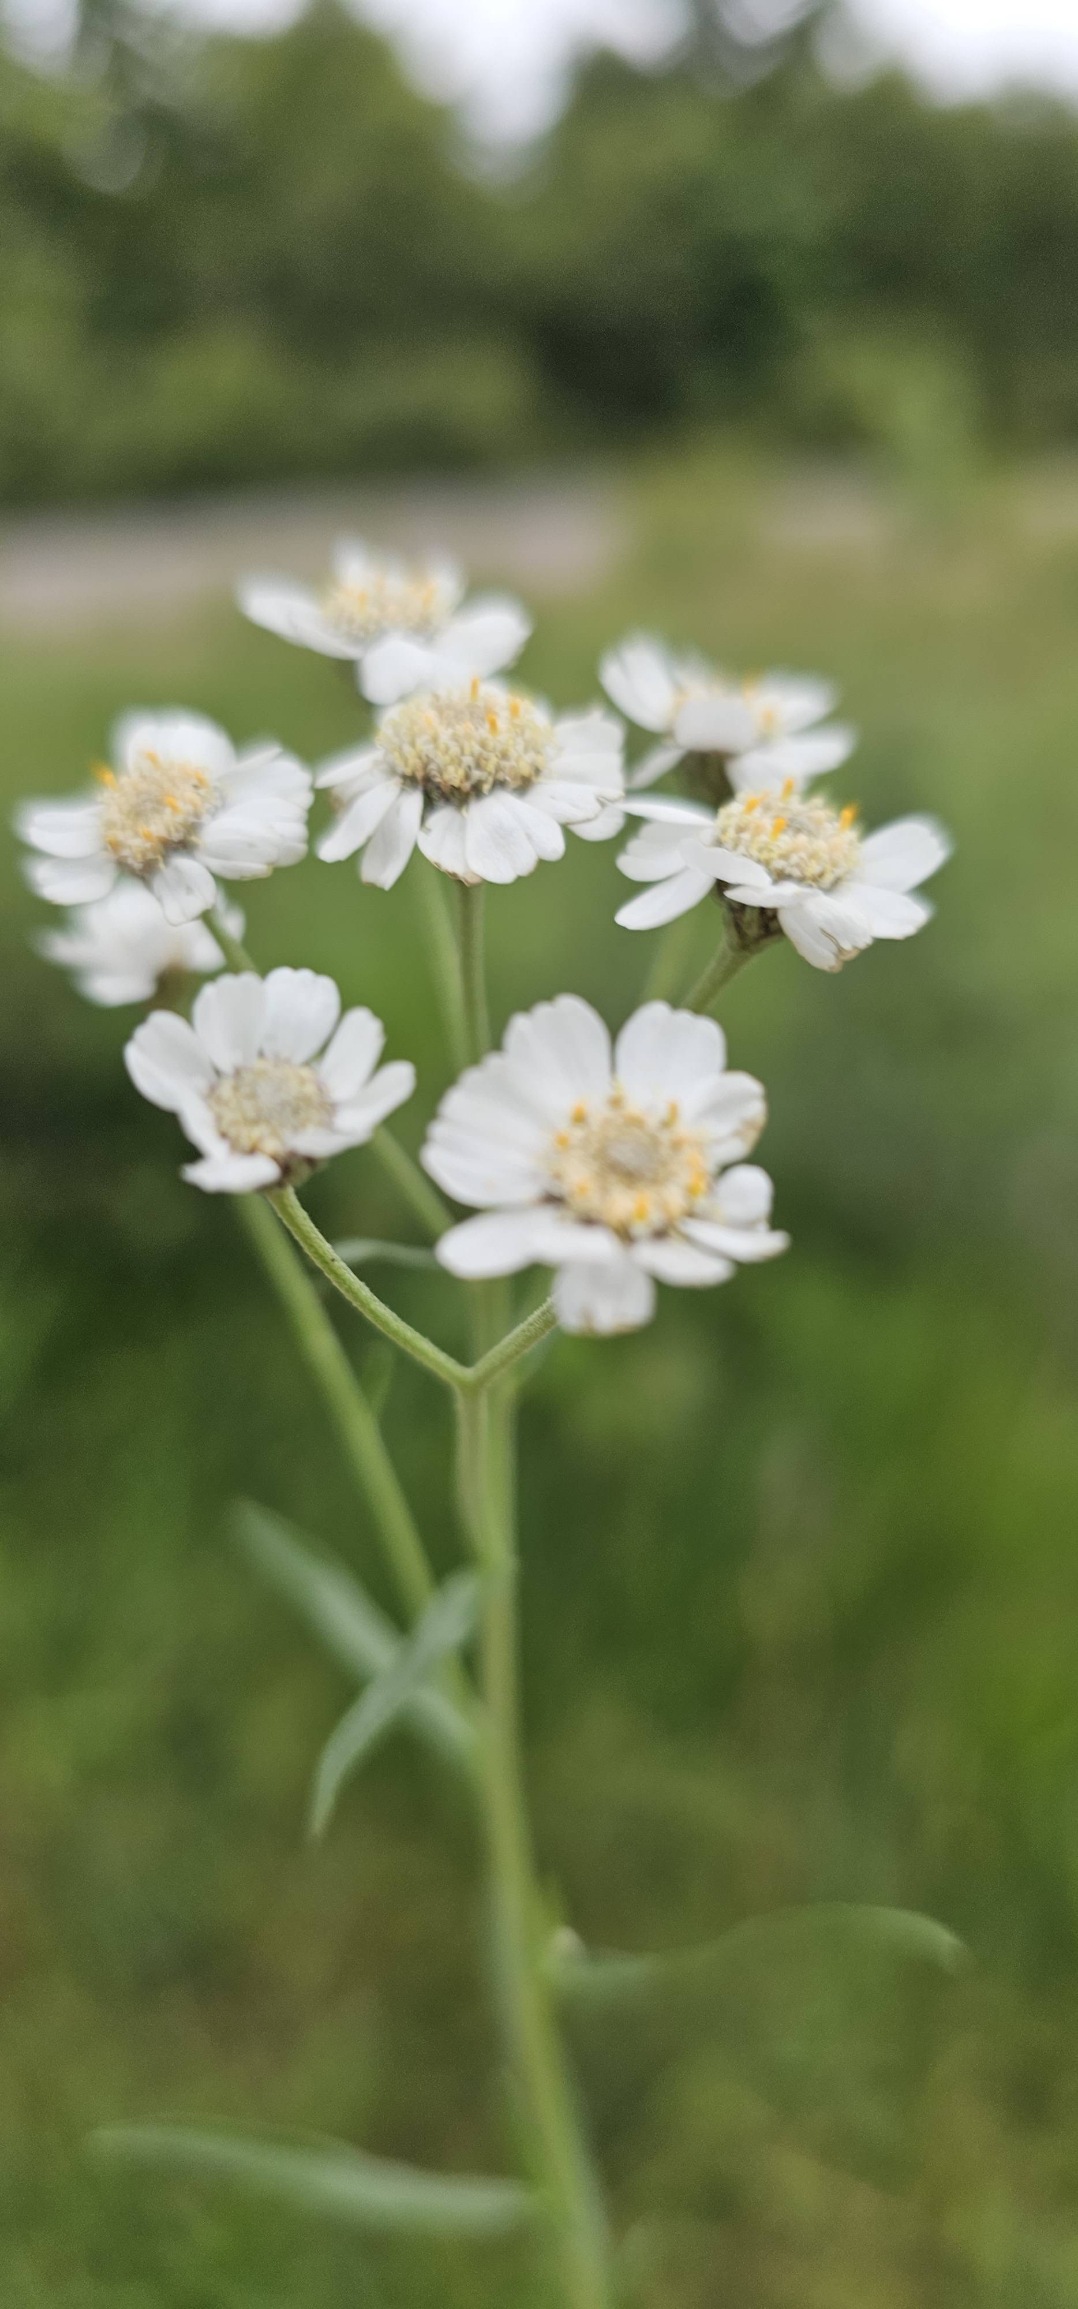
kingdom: Plantae
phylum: Tracheophyta
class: Magnoliopsida
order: Asterales
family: Asteraceae
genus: Achillea
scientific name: Achillea ptarmica
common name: Nyse-røllike
